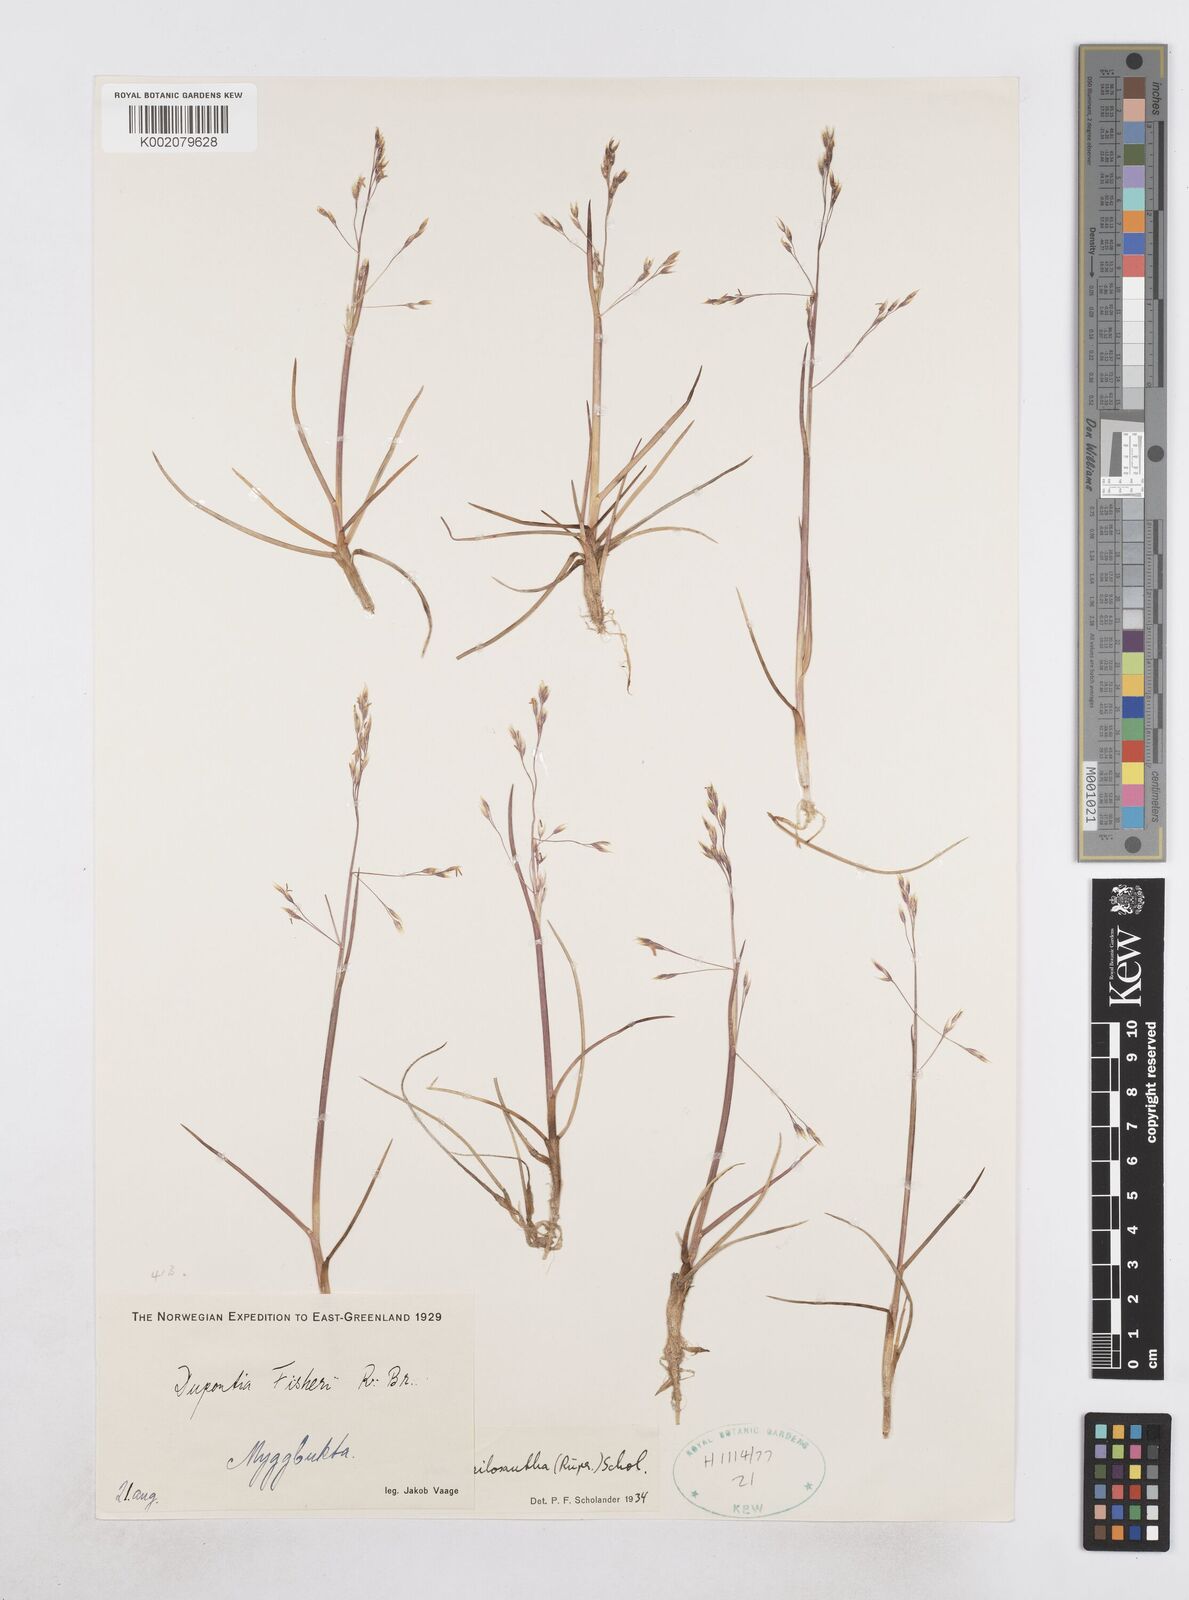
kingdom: Plantae
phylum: Tracheophyta
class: Liliopsida
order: Poales
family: Poaceae
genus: Dupontia
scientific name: Dupontia fisheri
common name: Tundra grass
